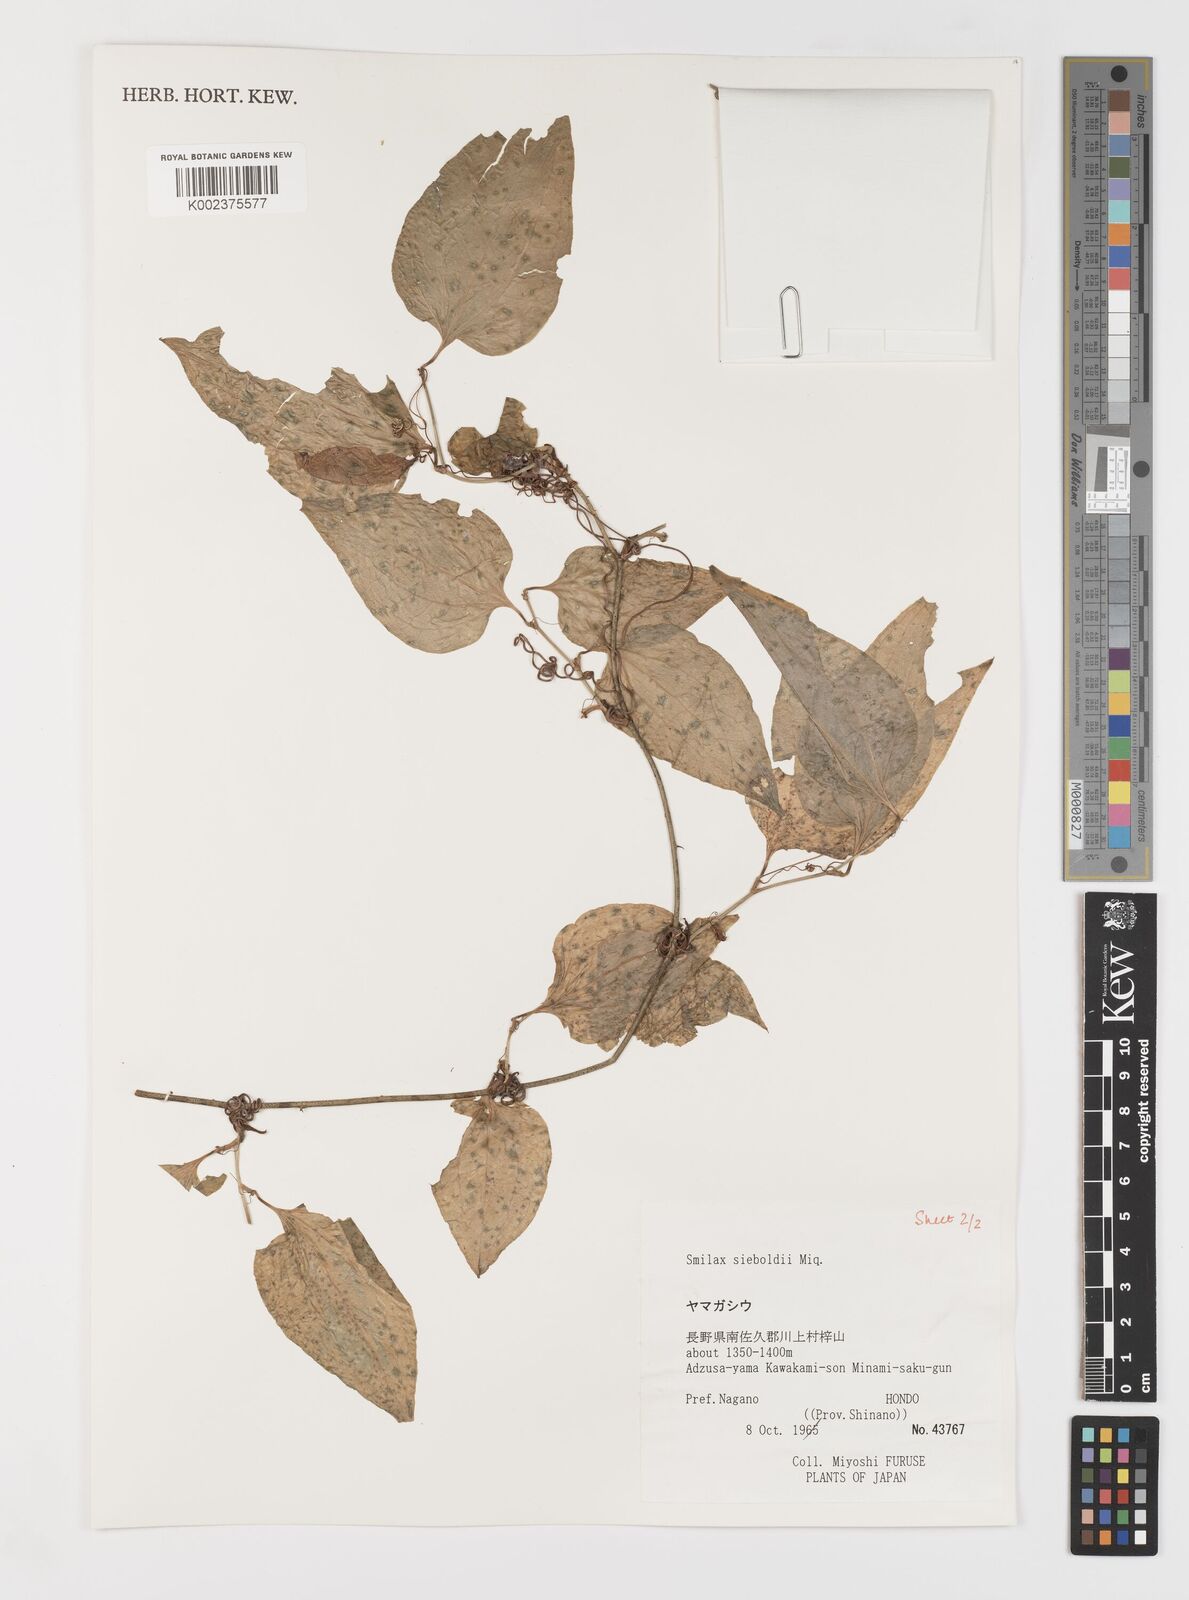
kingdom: Plantae
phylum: Tracheophyta
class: Liliopsida
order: Liliales
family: Smilacaceae
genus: Smilax
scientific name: Smilax sieboldii
